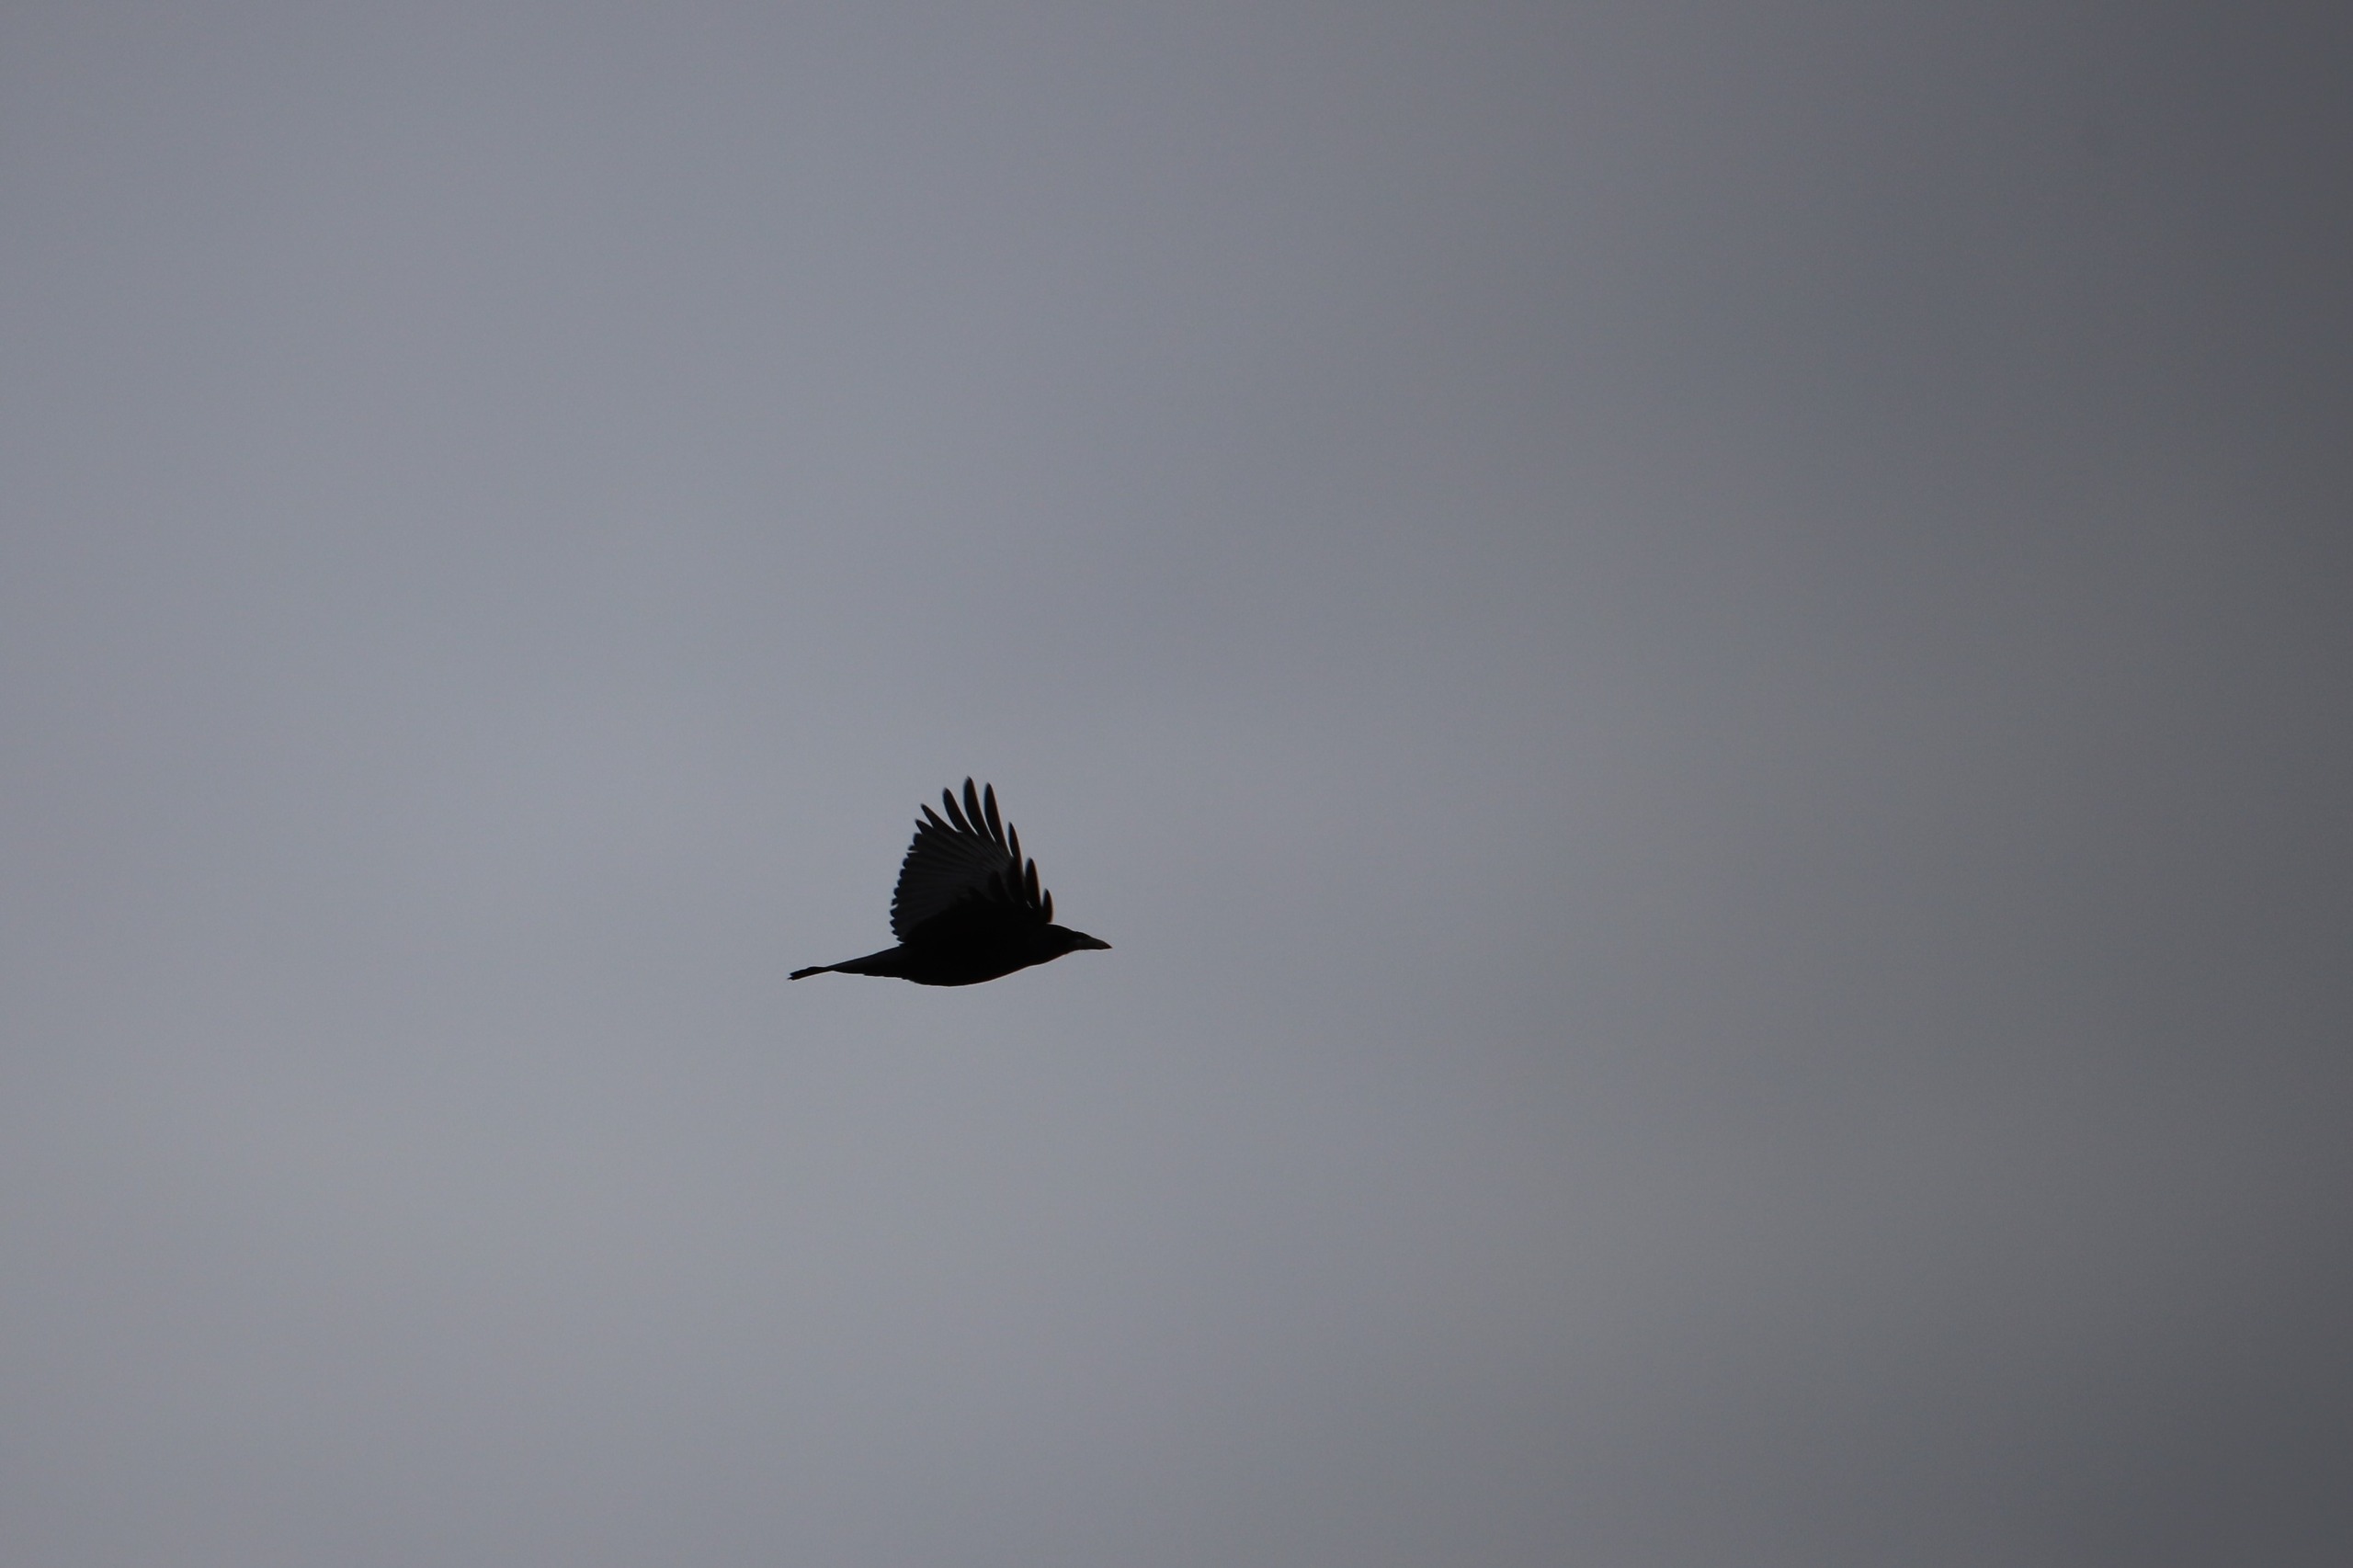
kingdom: Animalia
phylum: Chordata
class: Aves
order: Passeriformes
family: Corvidae
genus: Corvus
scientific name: Corvus corone
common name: Sortkrage
